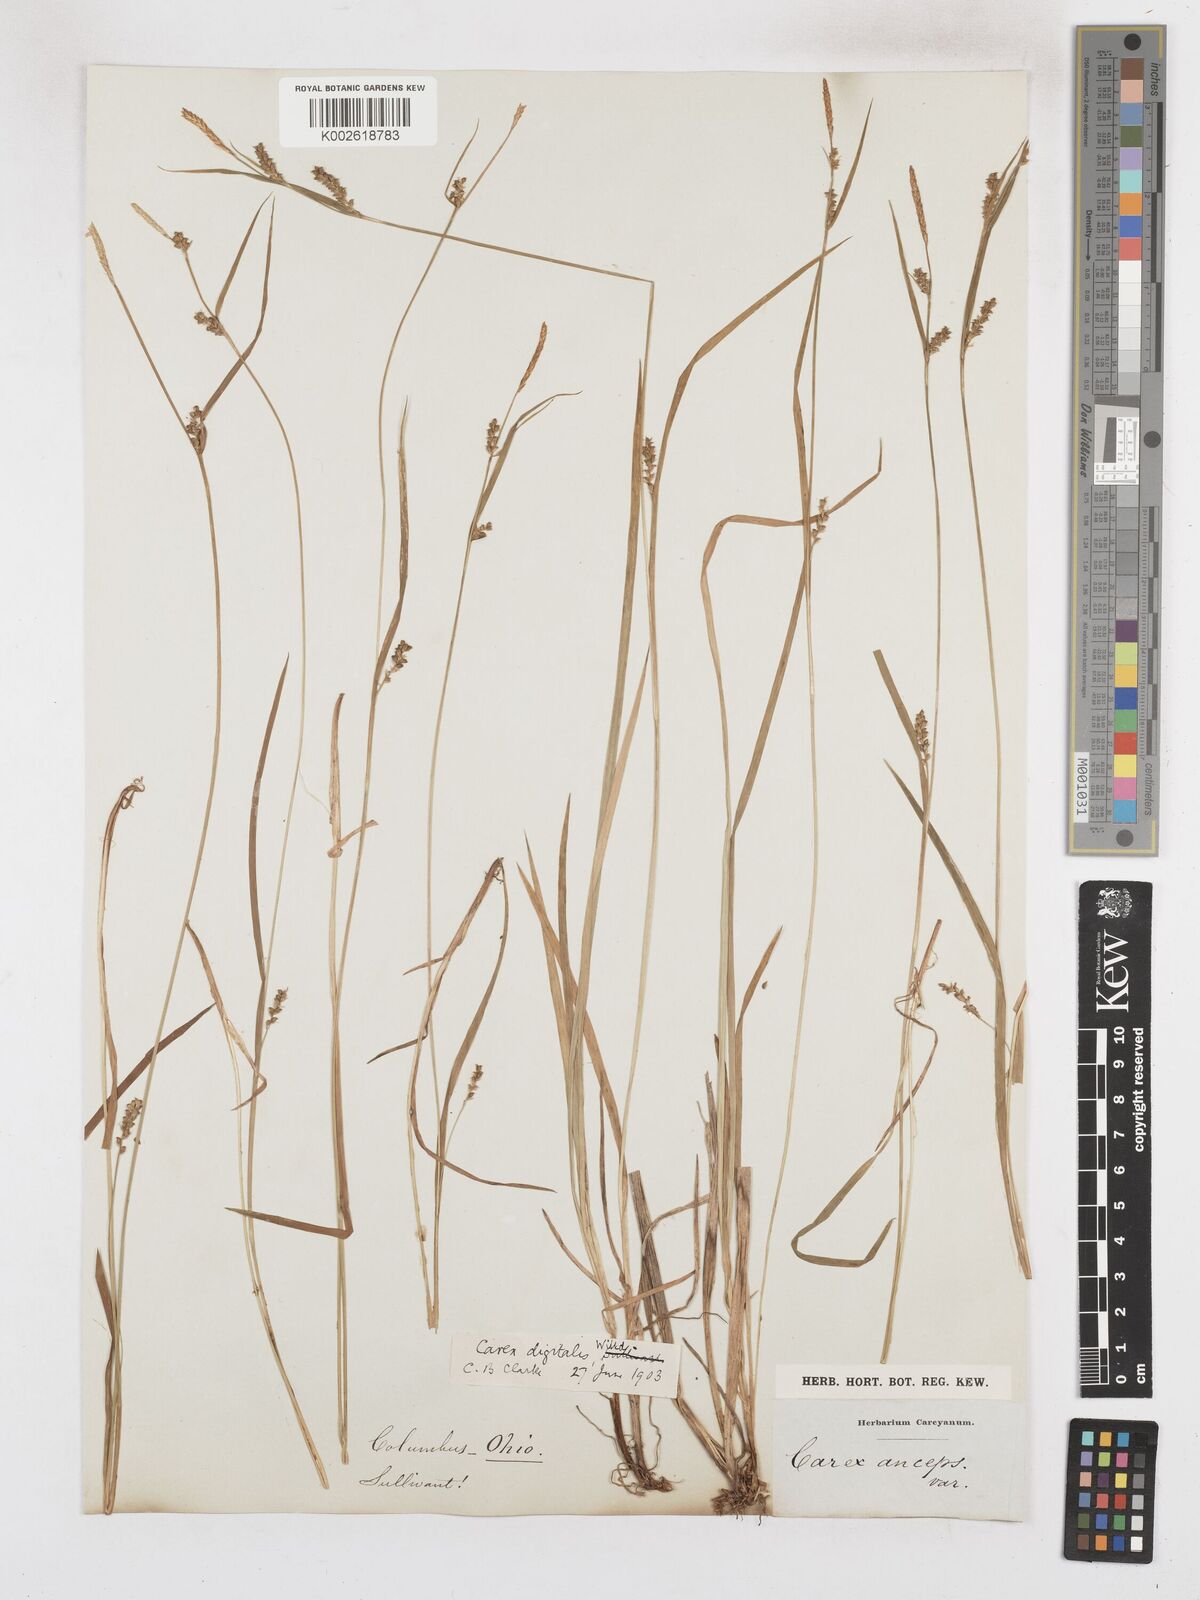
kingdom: Plantae
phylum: Tracheophyta
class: Liliopsida
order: Poales
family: Cyperaceae
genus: Carex
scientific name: Carex digitalis
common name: Slender wood sedge
